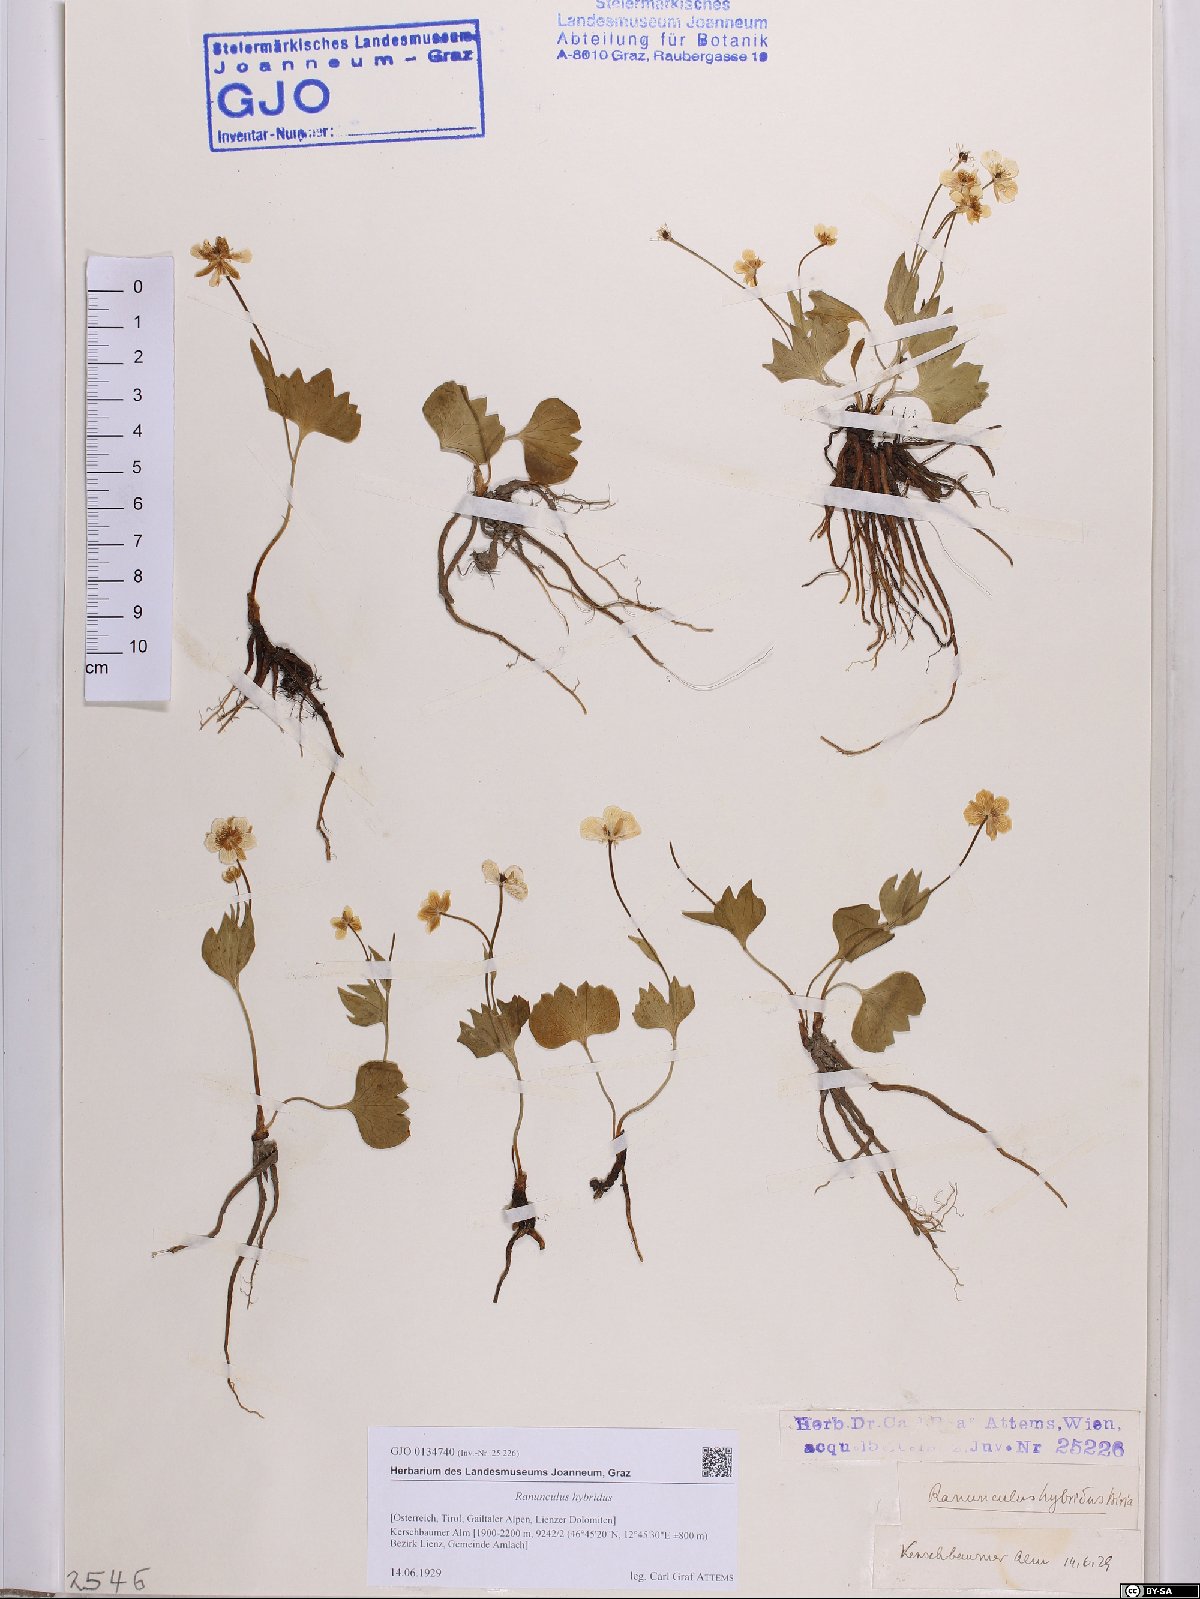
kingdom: Plantae
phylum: Tracheophyta
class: Magnoliopsida
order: Ranunculales
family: Ranunculaceae
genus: Ranunculus
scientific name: Ranunculus hybridus
